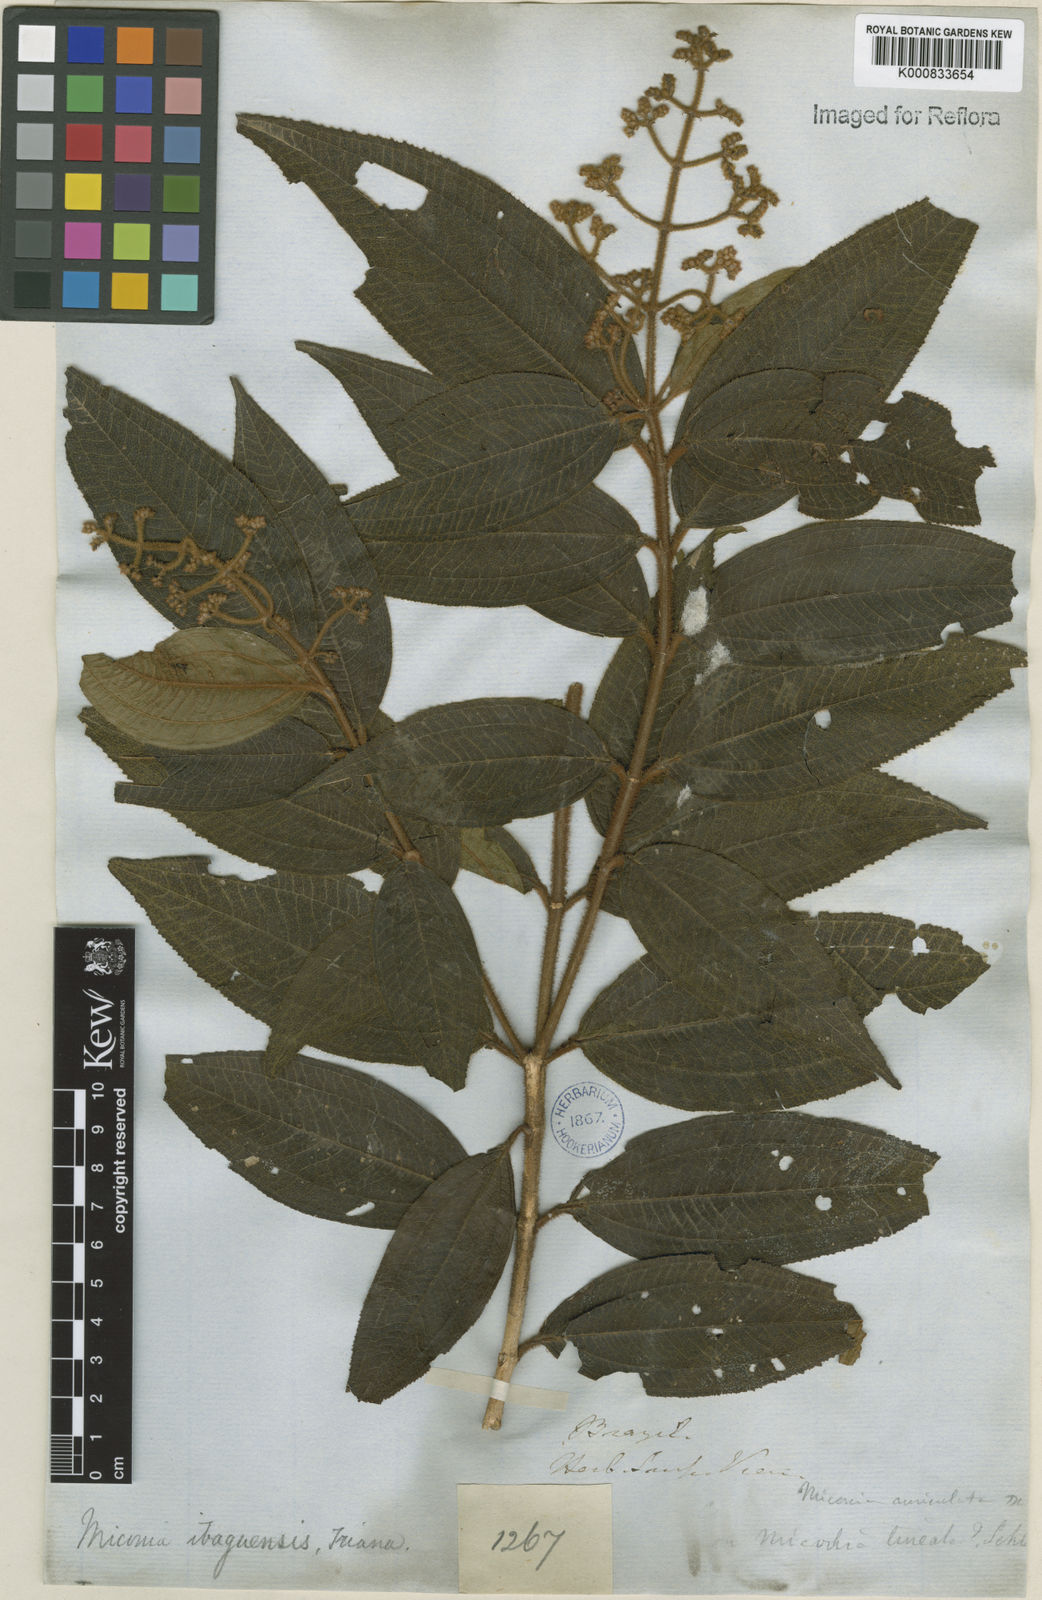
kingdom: Plantae
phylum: Tracheophyta
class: Magnoliopsida
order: Myrtales
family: Melastomataceae
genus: Miconia
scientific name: Miconia ibaguensis
